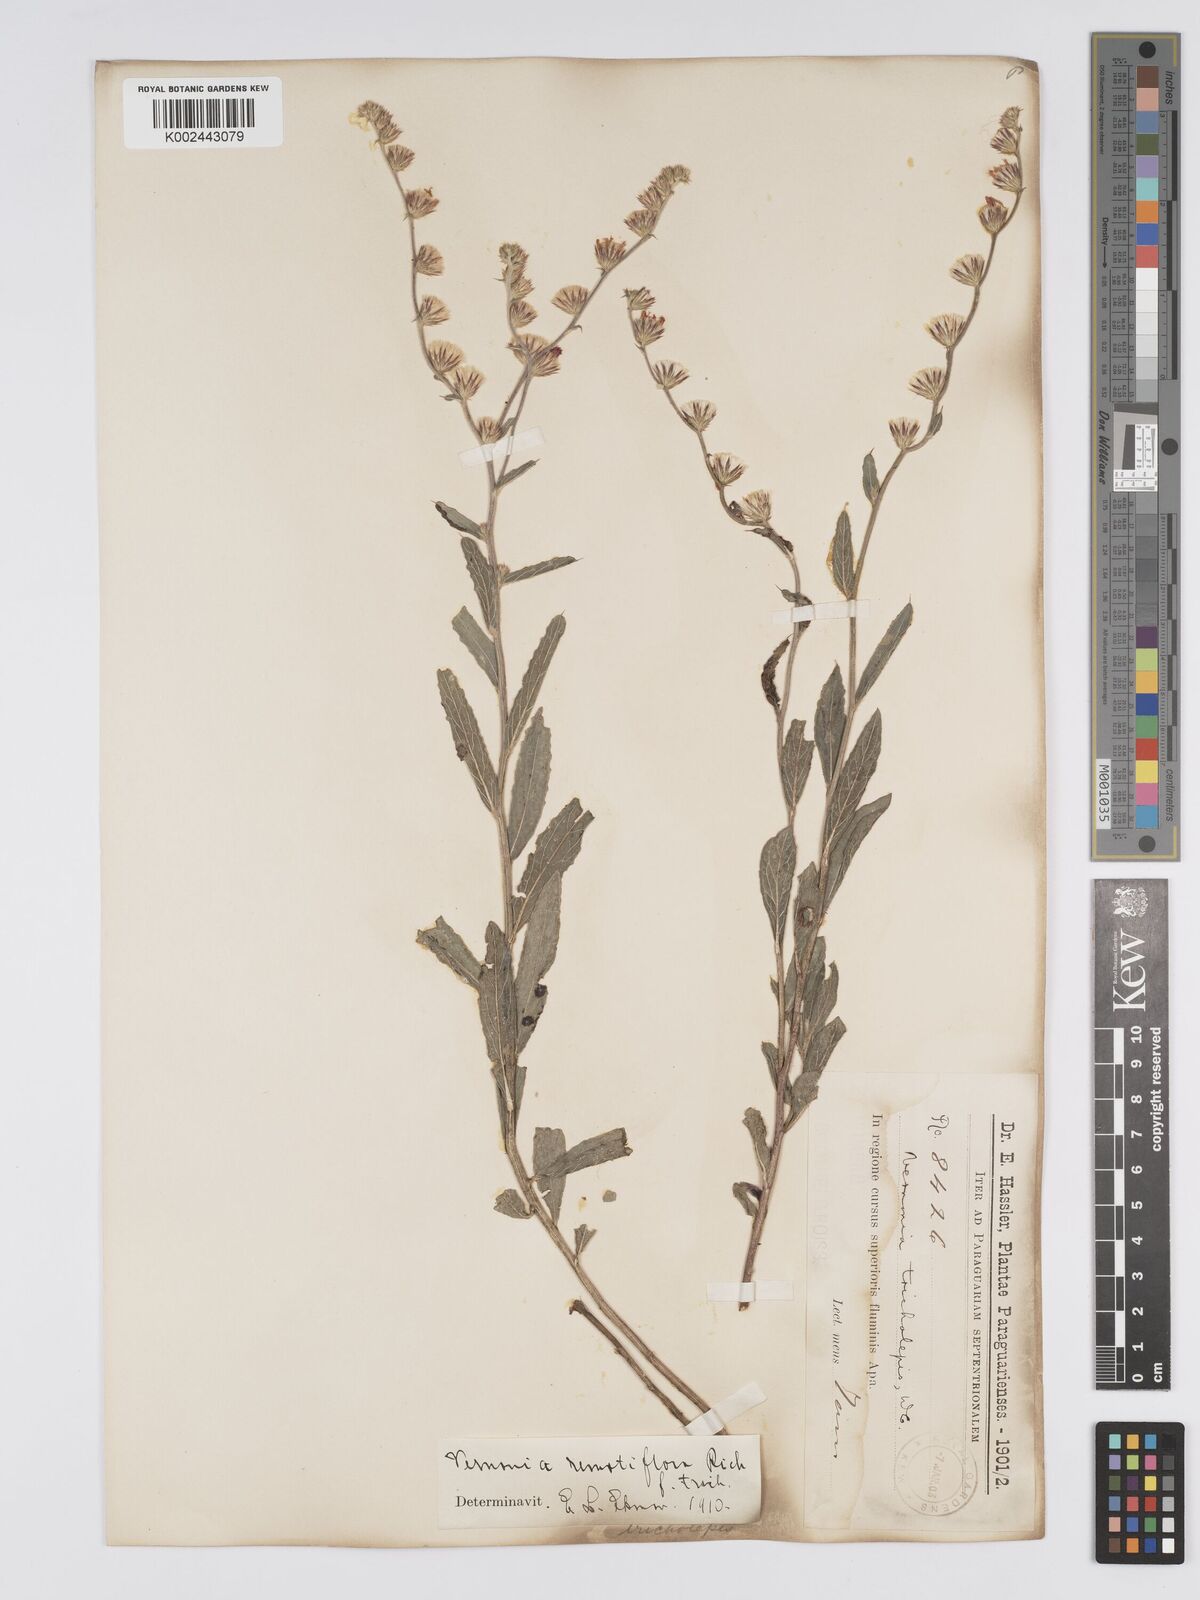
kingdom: Plantae
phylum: Tracheophyta
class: Magnoliopsida
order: Asterales
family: Asteraceae
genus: Lepidaploa
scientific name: Lepidaploa remotiflora
